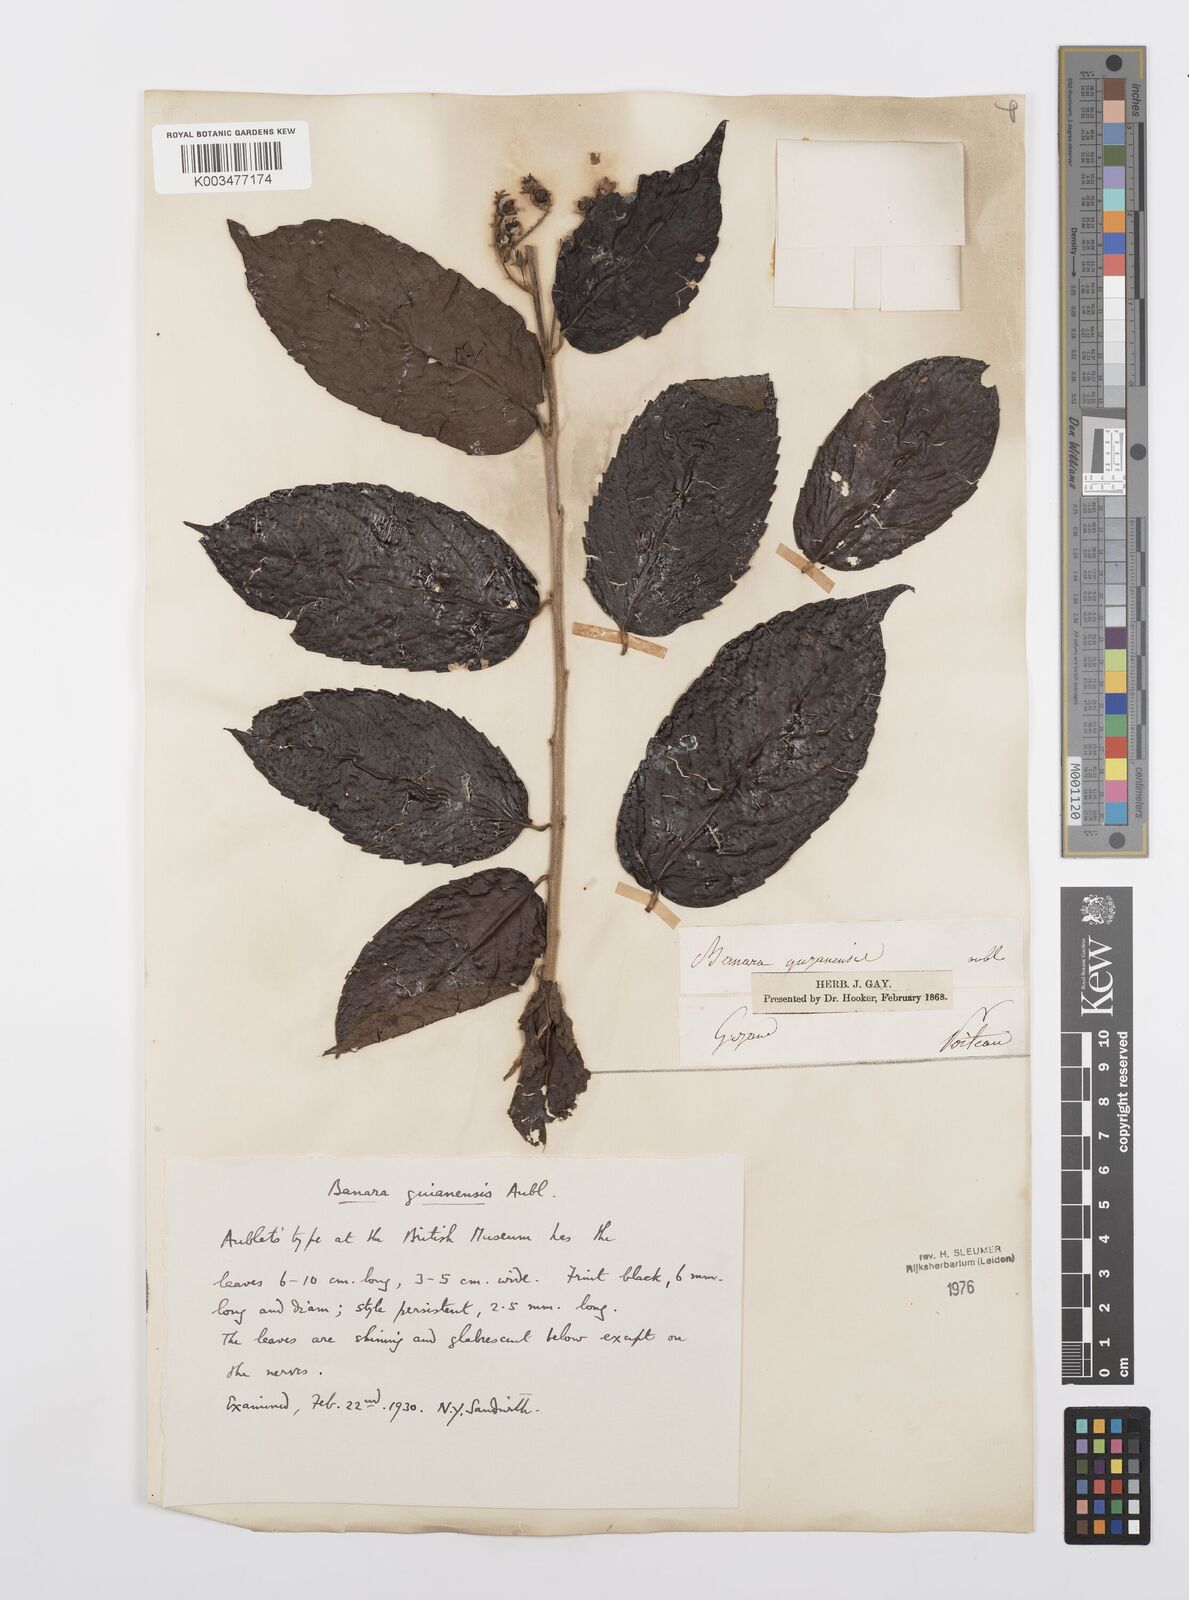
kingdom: Plantae
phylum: Tracheophyta
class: Magnoliopsida
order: Malpighiales
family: Salicaceae
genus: Banara
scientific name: Banara guianensis
